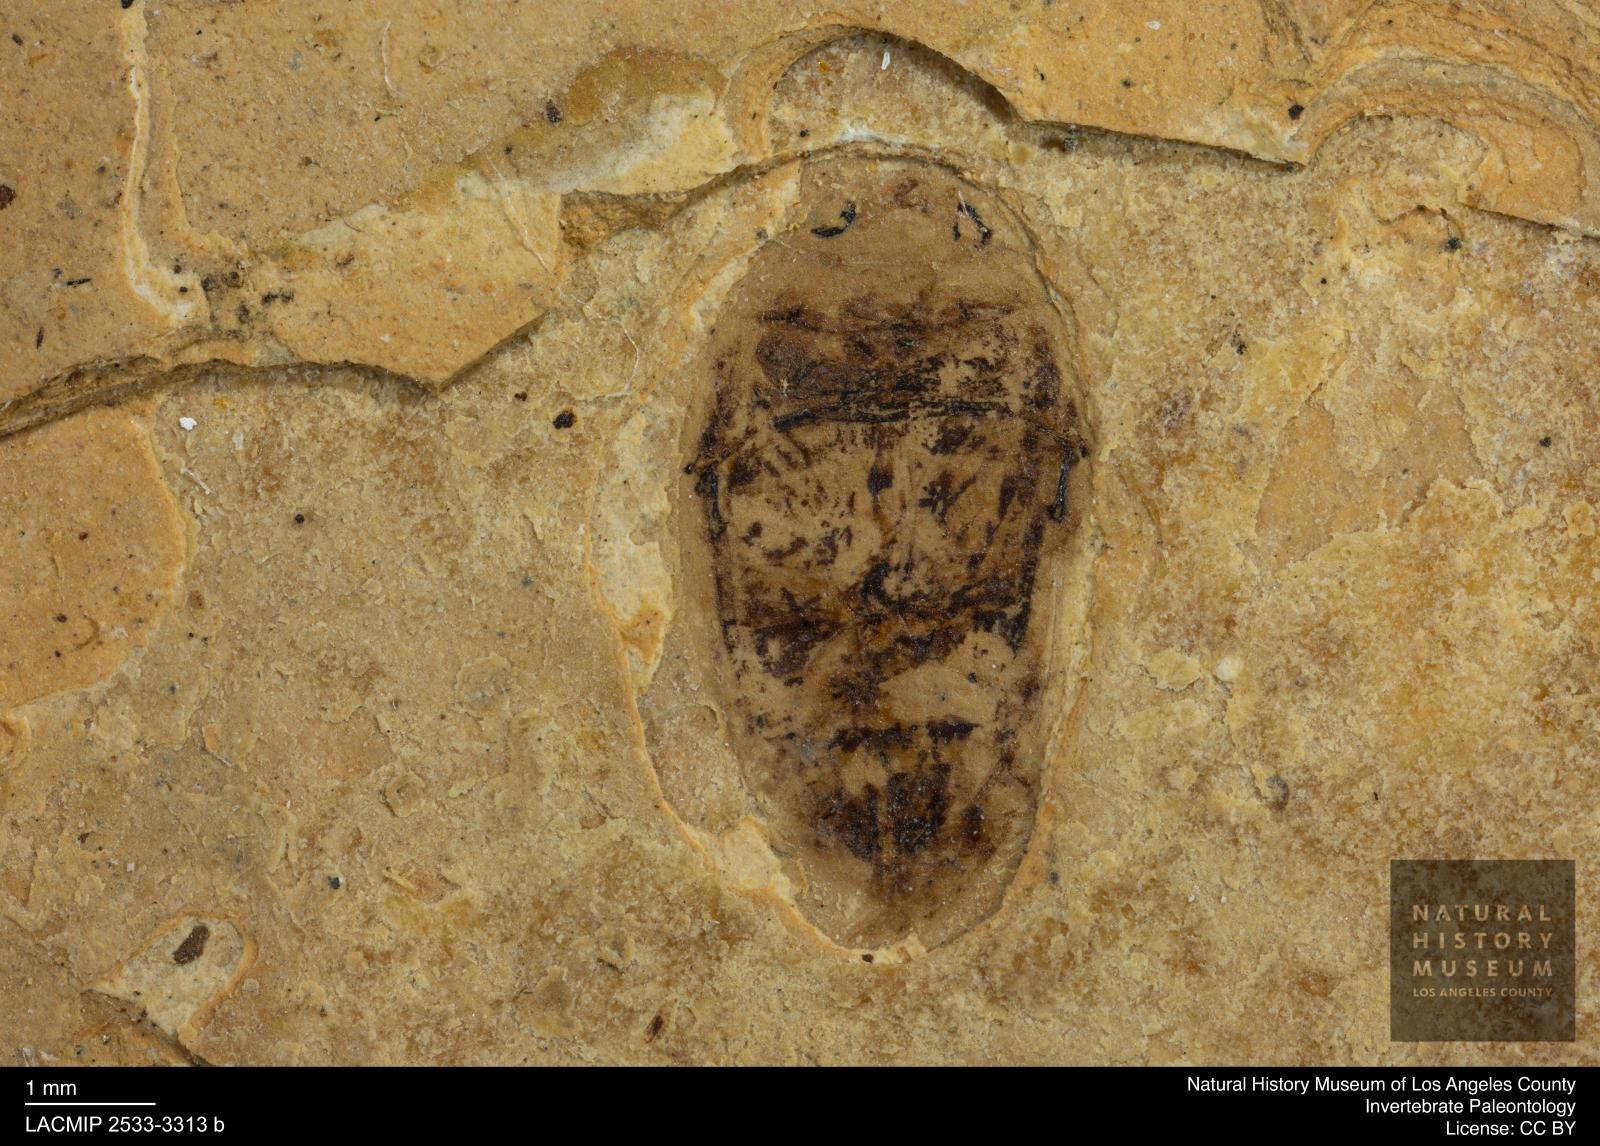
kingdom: Animalia
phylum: Arthropoda
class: Insecta
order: Coleoptera
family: Dytiscidae
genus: Laccophilus
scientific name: Laccophilus Palaeogyrinus strigatus
